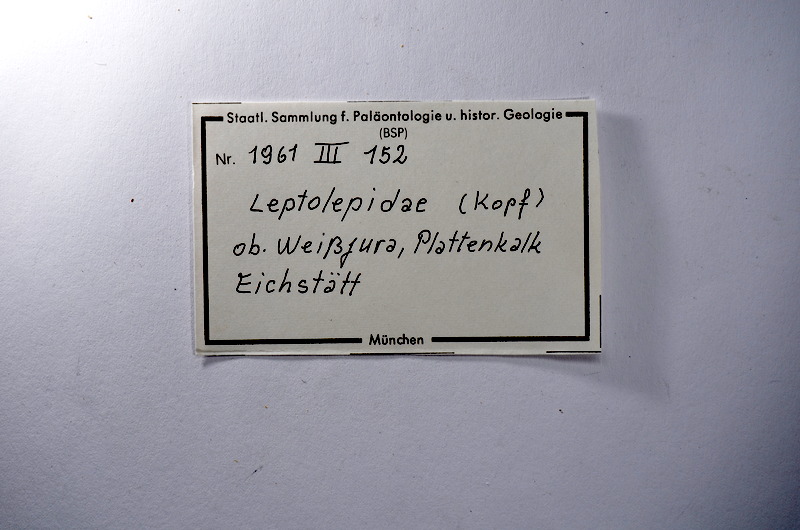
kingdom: Animalia
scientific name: Animalia
